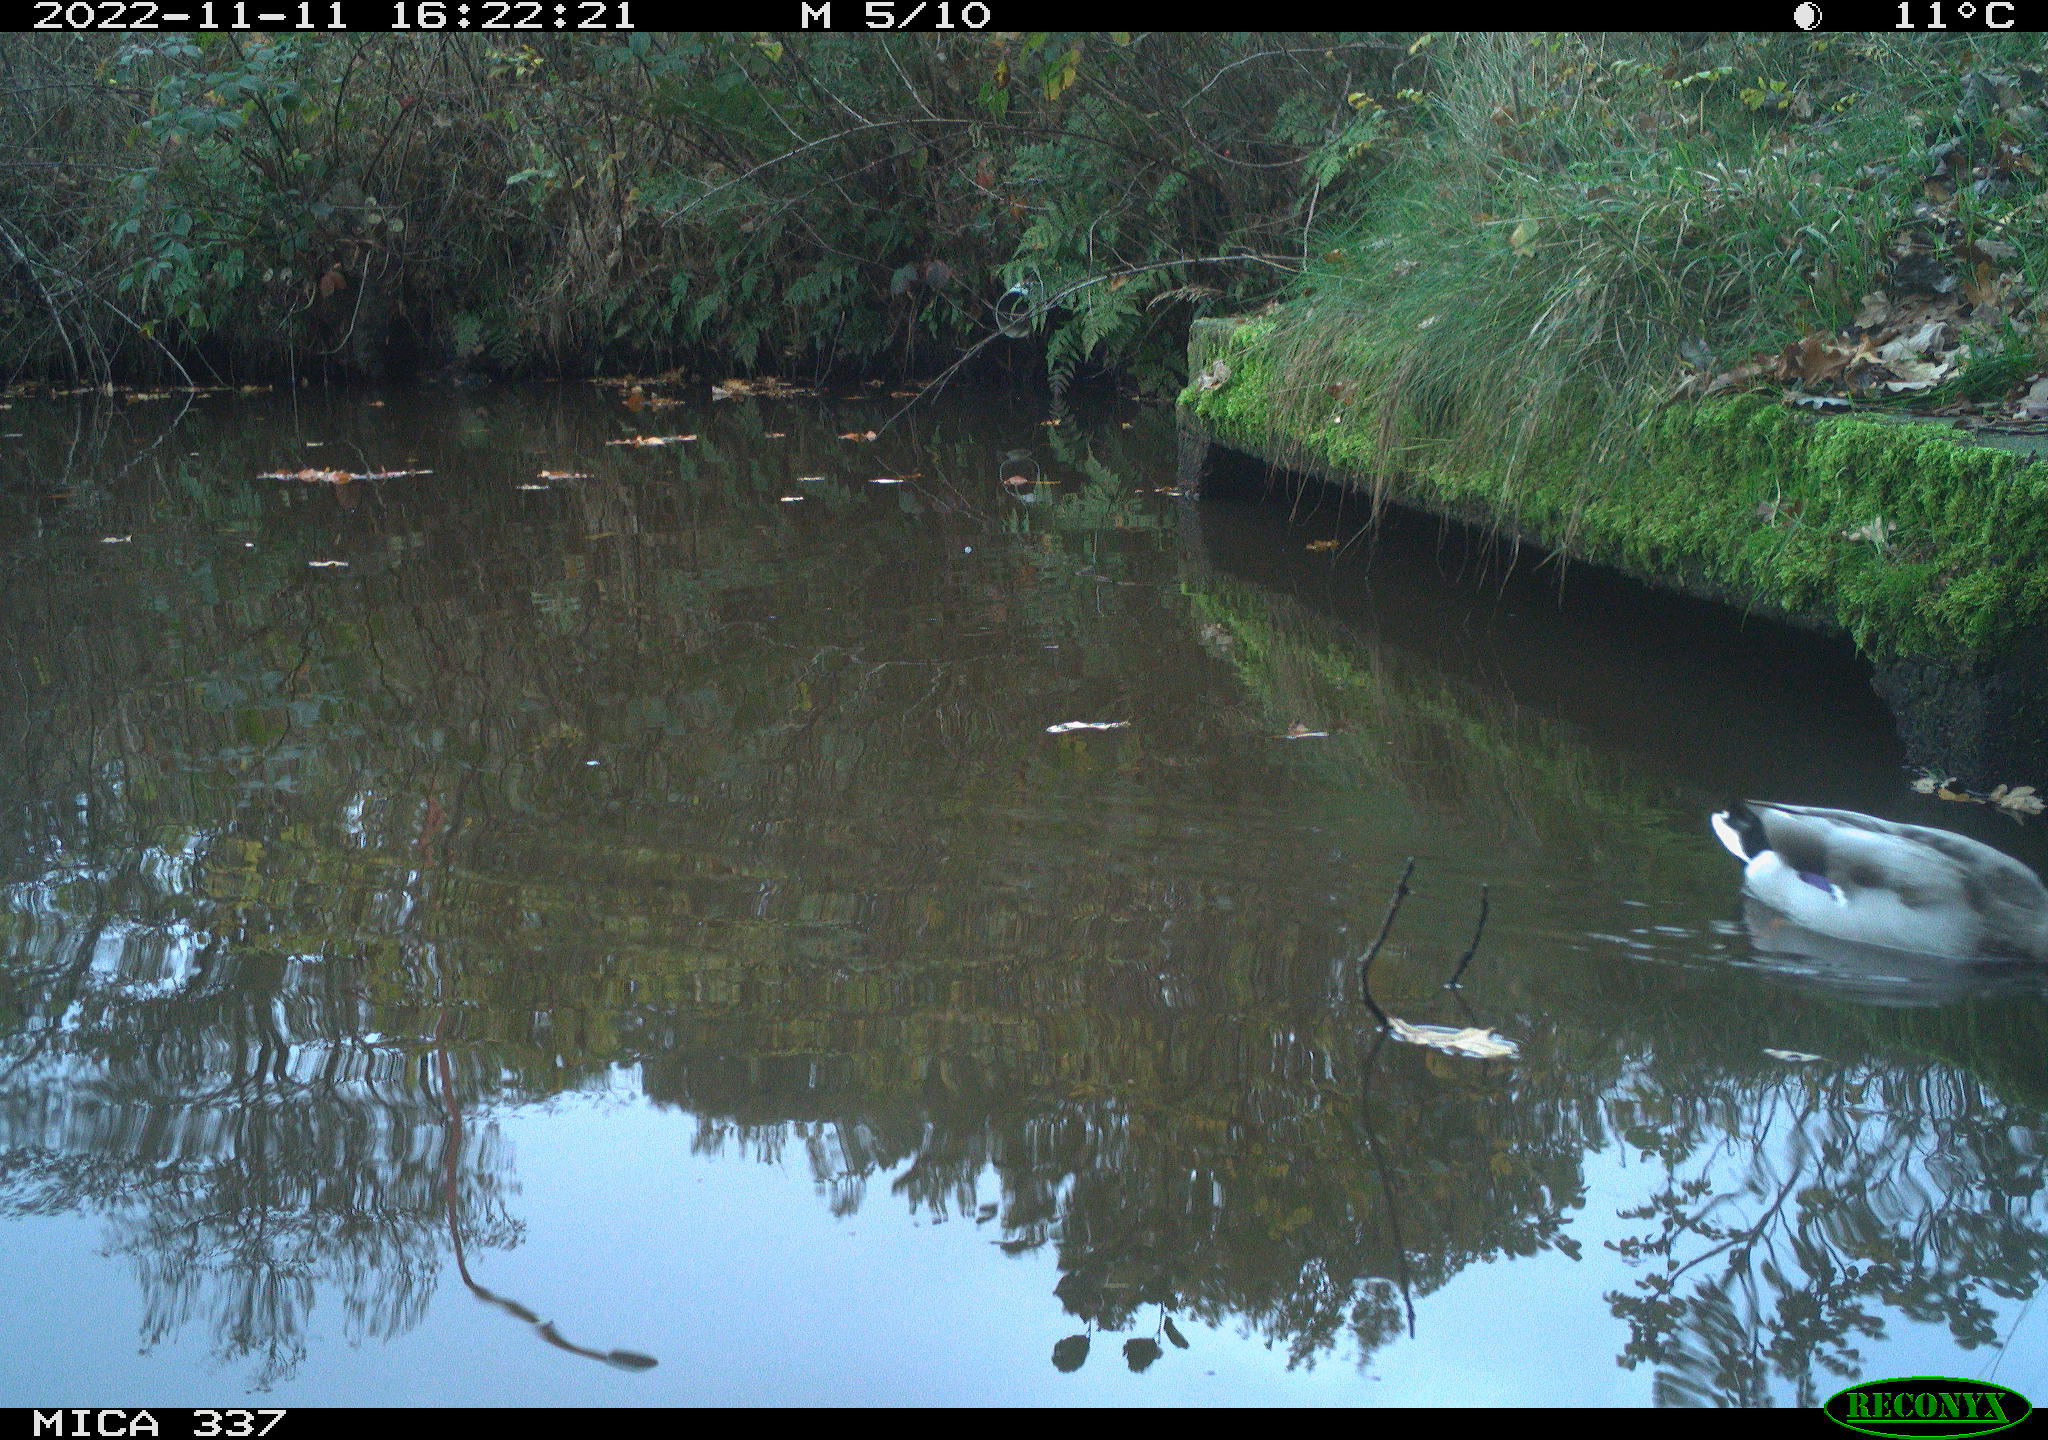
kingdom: Animalia
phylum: Chordata
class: Aves
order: Anseriformes
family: Anatidae
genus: Anas
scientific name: Anas platyrhynchos
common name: Mallard
